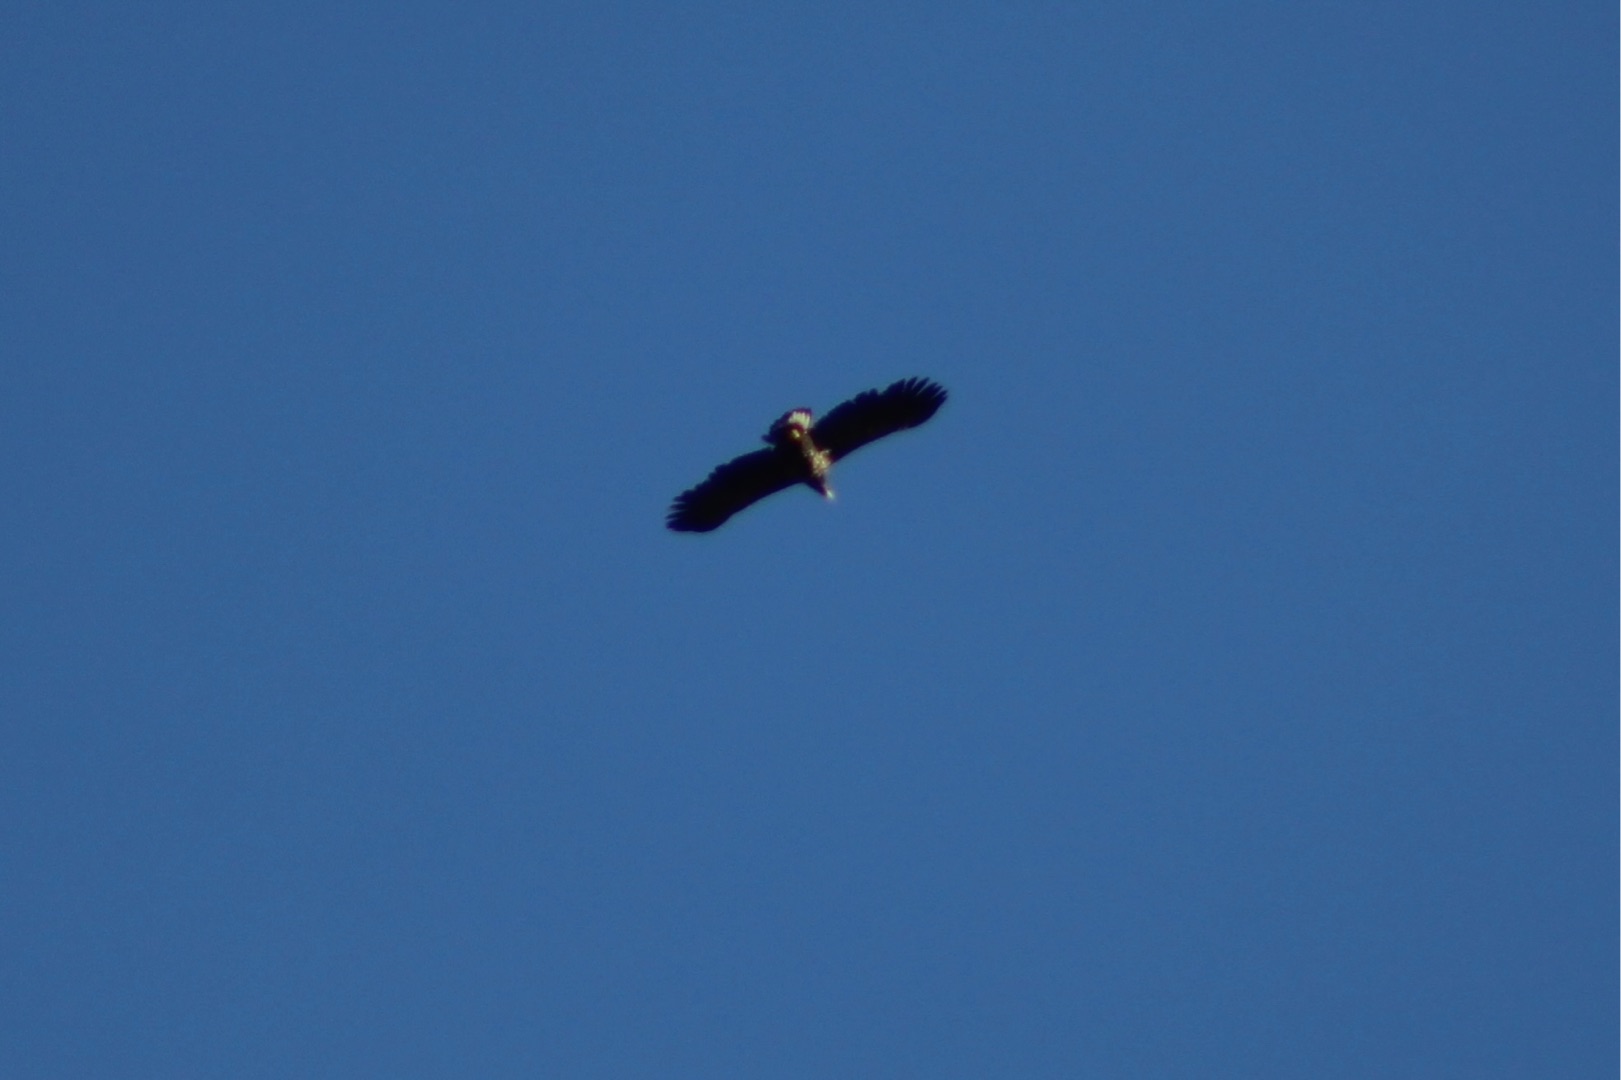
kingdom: Animalia
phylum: Chordata
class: Aves
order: Accipitriformes
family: Accipitridae
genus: Haliaeetus
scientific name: Haliaeetus albicilla
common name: Havørn
